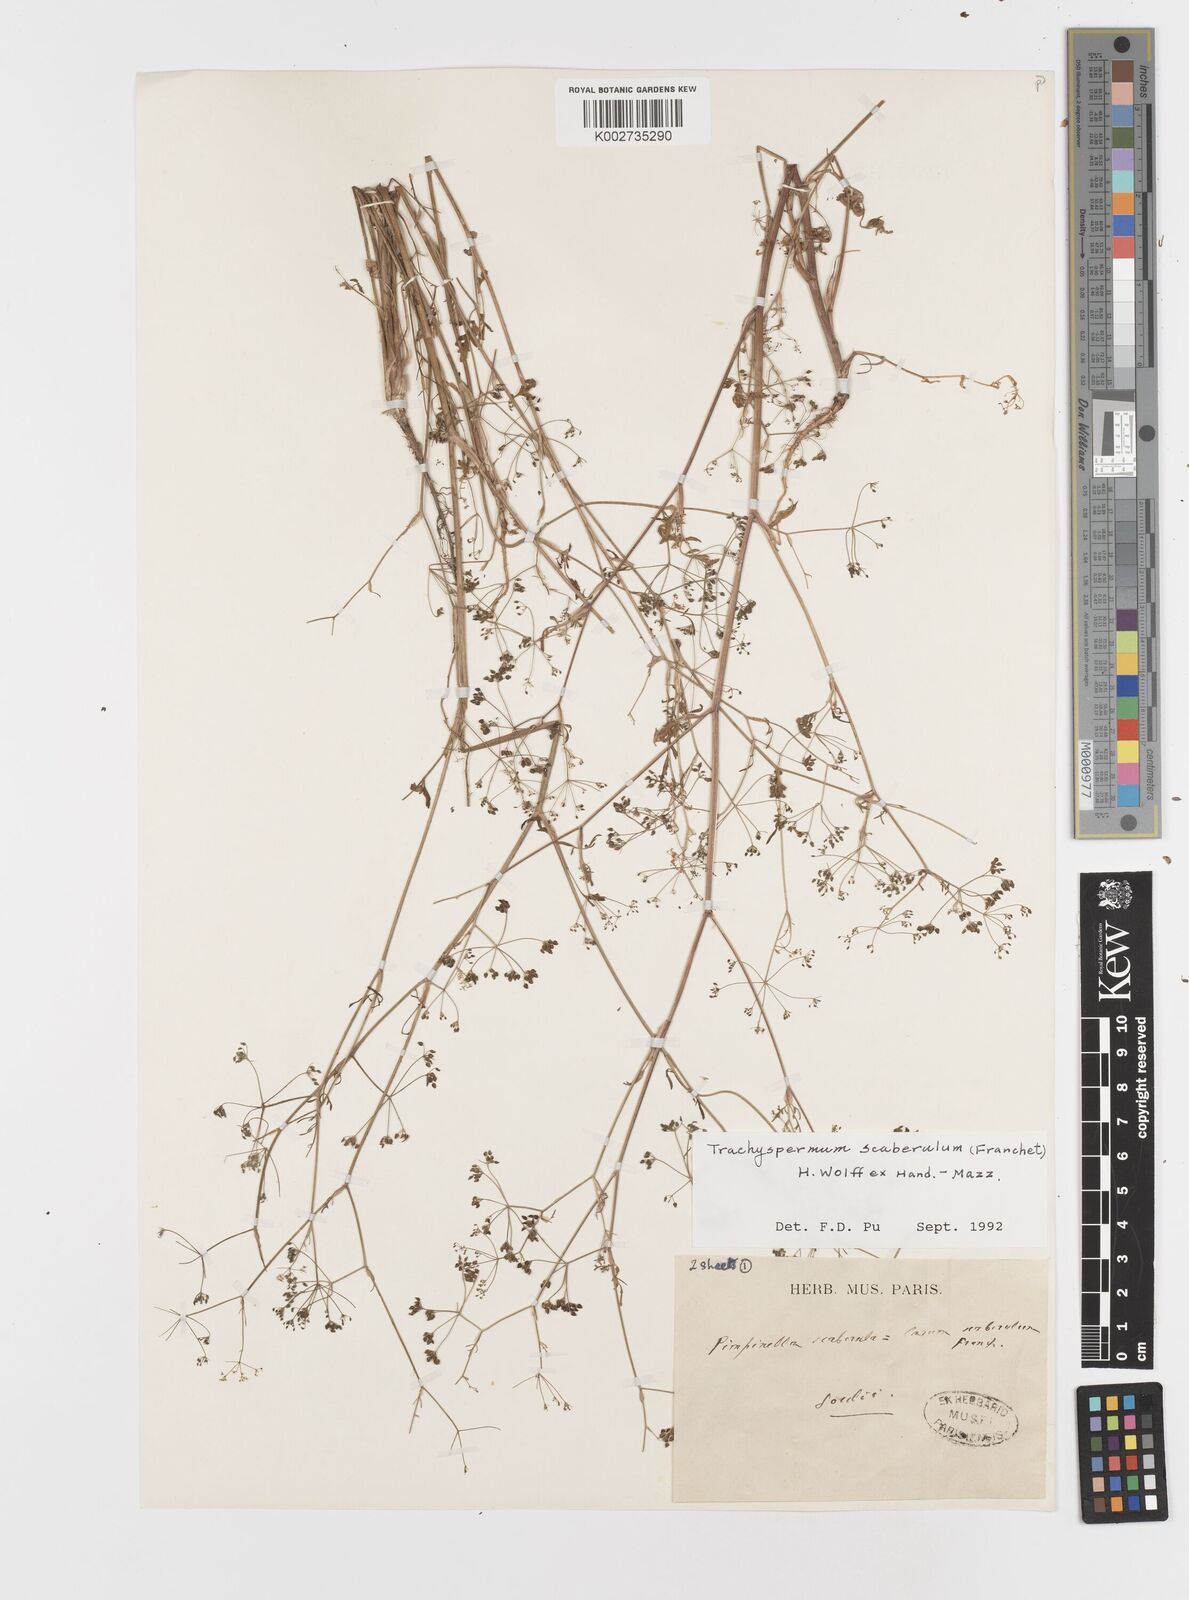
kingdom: Plantae
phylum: Tracheophyta
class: Magnoliopsida
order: Apiales
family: Apiaceae
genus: Pimpinella
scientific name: Pimpinella scaberula
